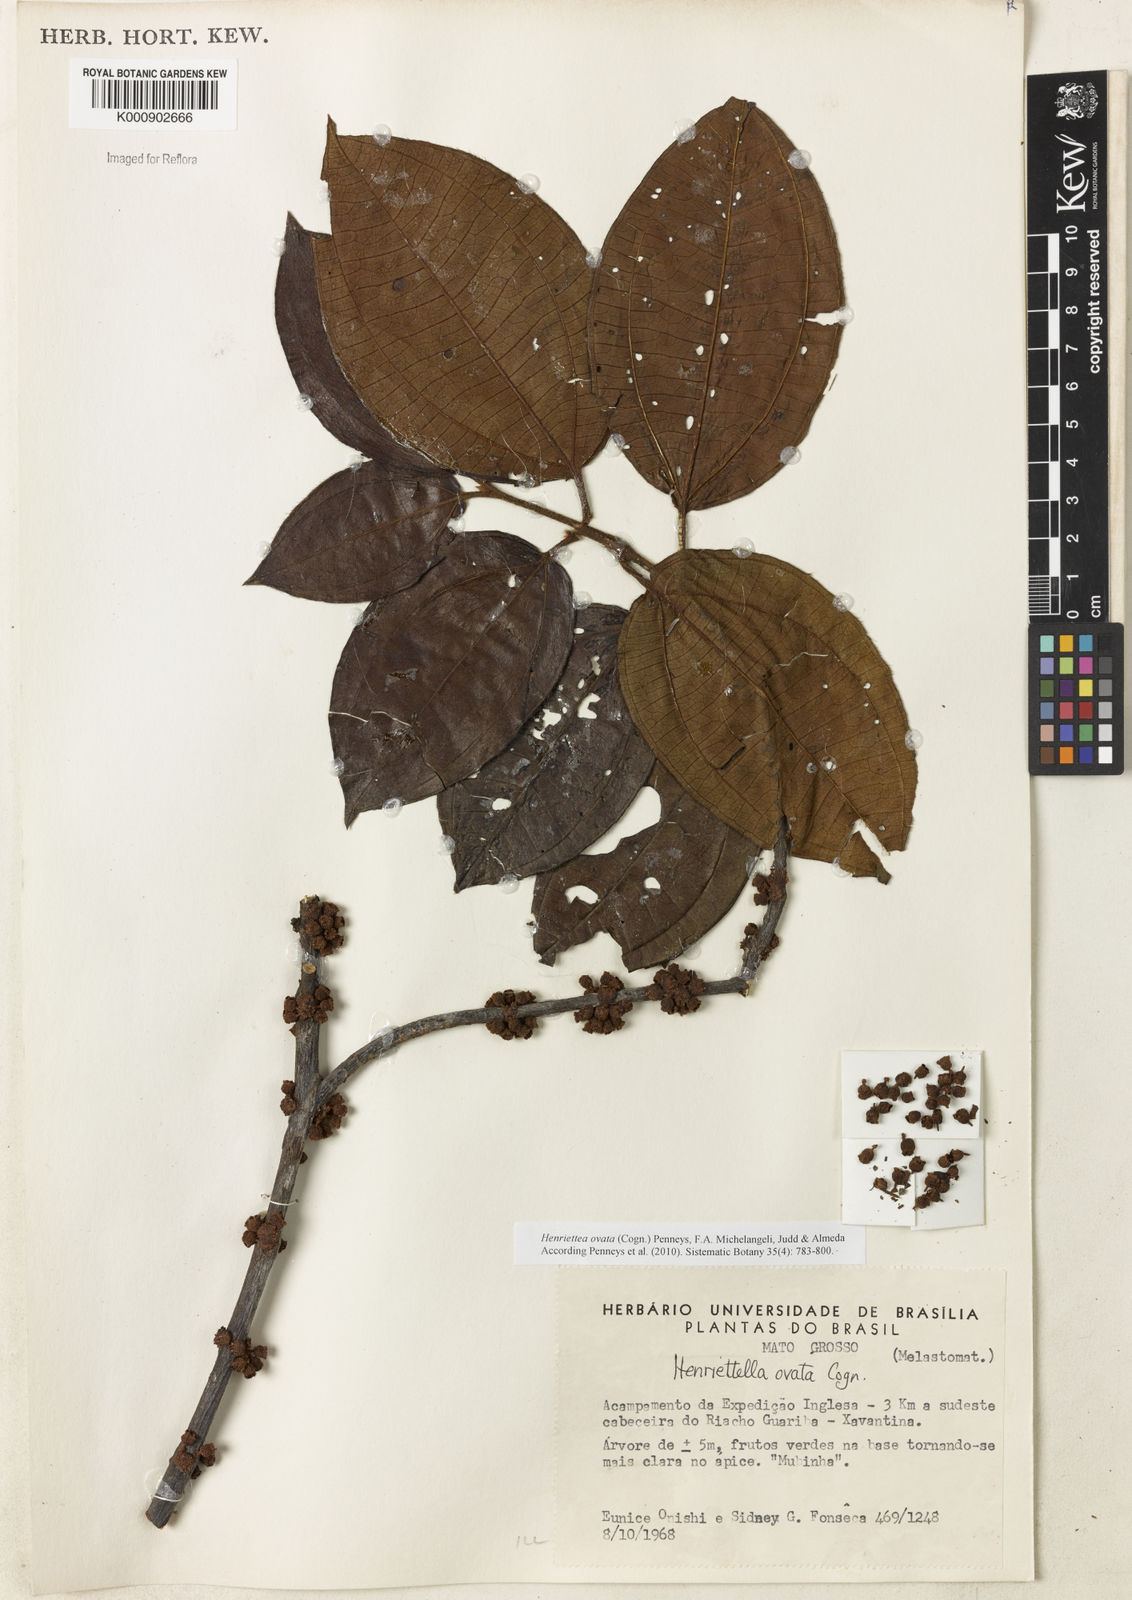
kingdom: Plantae
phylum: Tracheophyta
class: Magnoliopsida
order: Myrtales
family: Melastomataceae
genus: Henriettea
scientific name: Henriettea ovata
